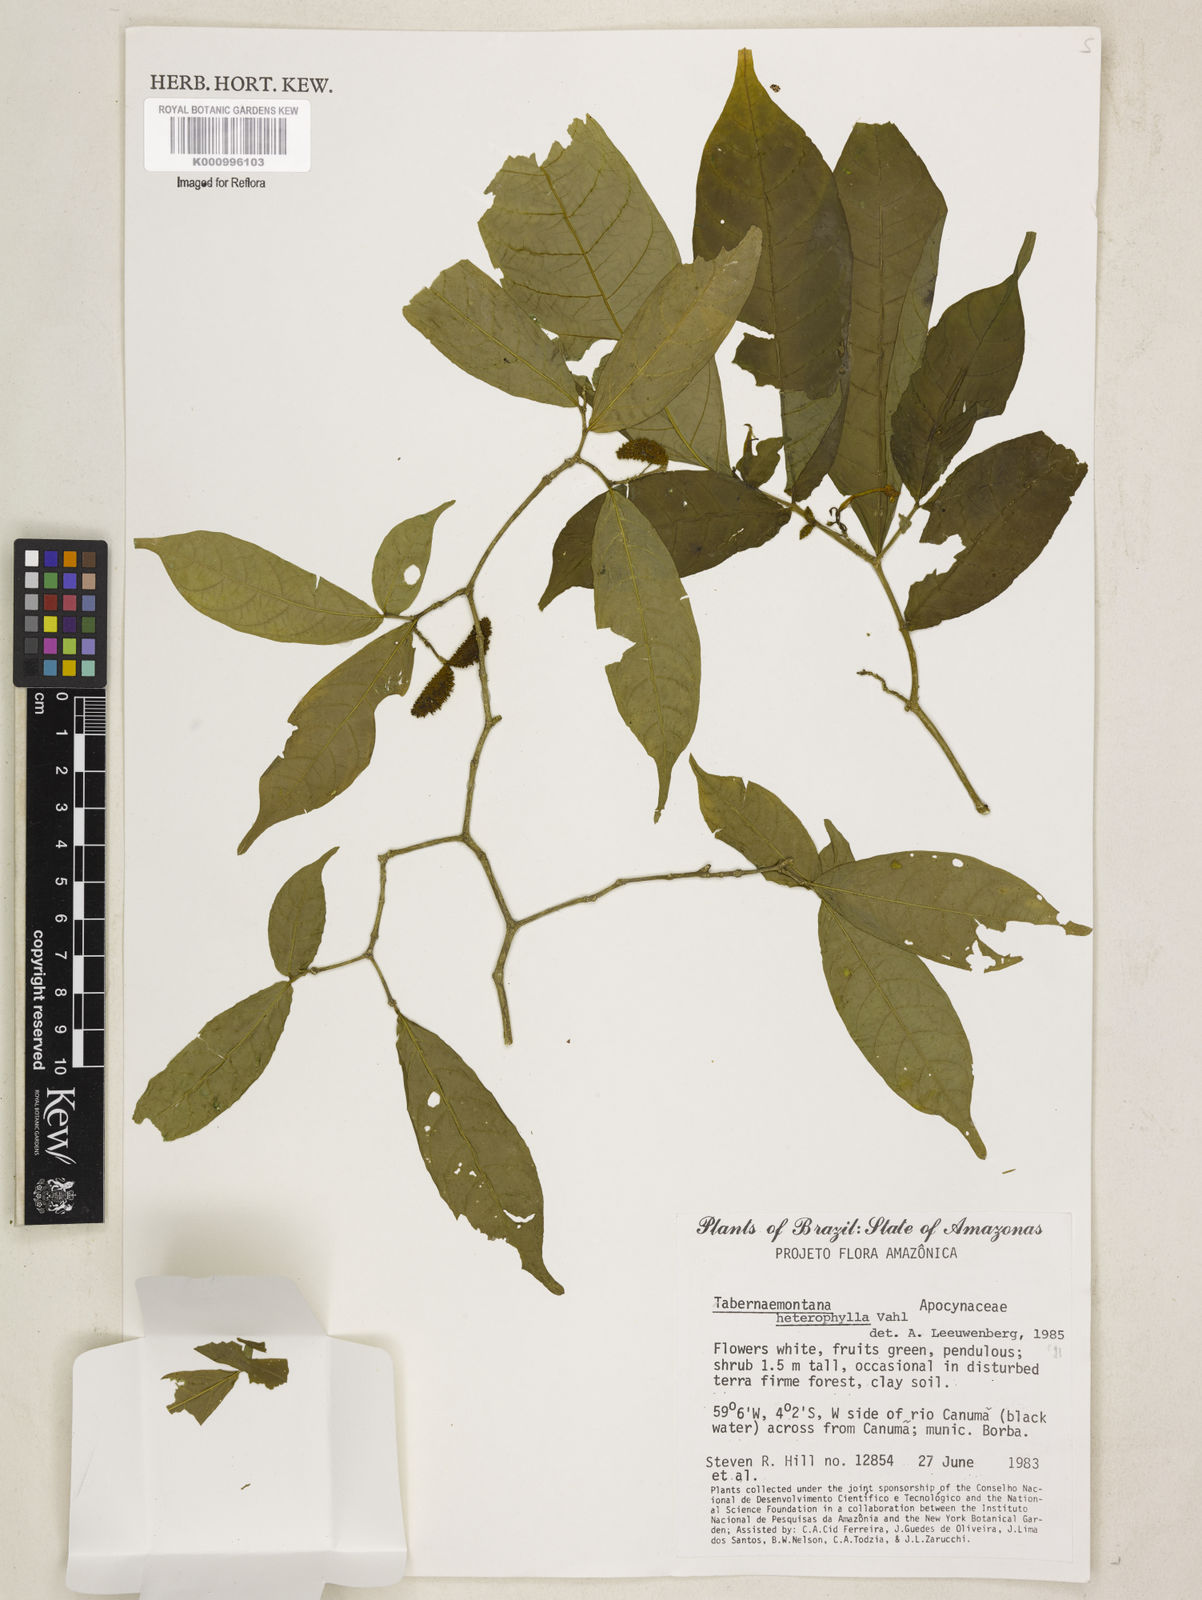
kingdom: Plantae
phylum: Tracheophyta
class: Magnoliopsida
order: Gentianales
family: Apocynaceae
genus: Tabernaemontana
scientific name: Tabernaemontana heterophylla
